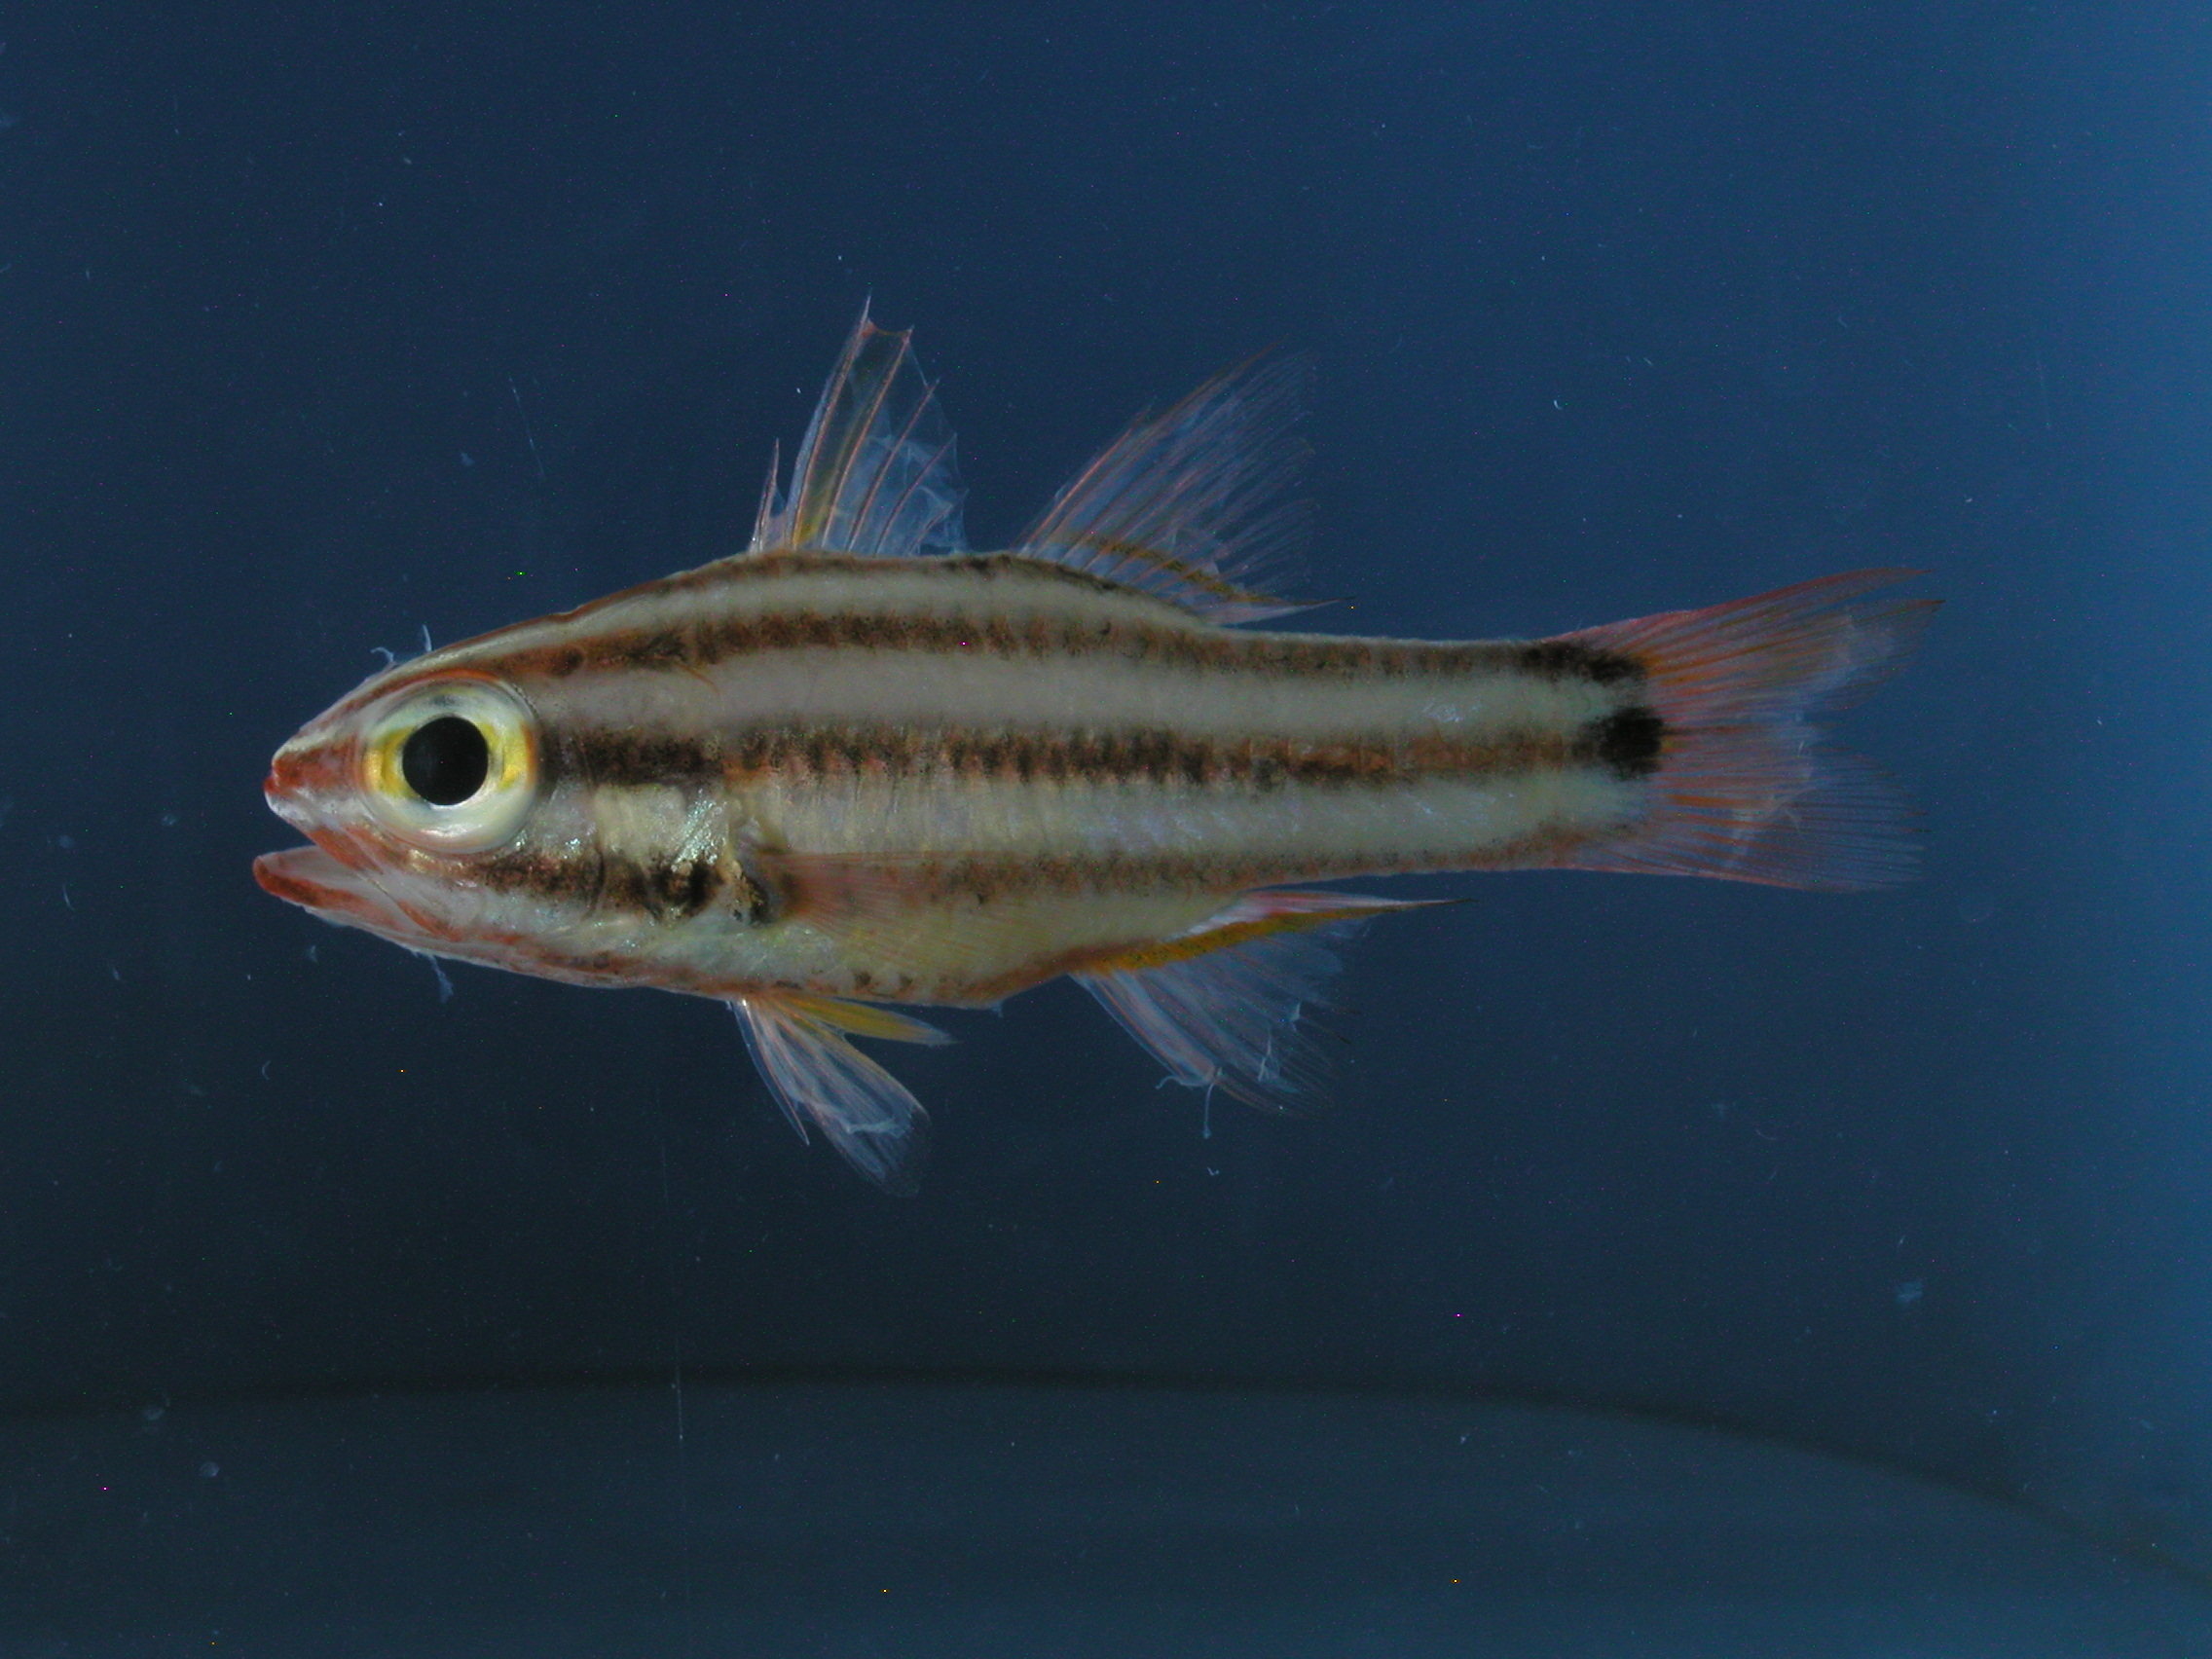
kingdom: Animalia
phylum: Chordata
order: Perciformes
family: Apogonidae
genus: Ostorhinchus
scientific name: Ostorhinchus angustatus
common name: Narrow-striped cardinalfish
